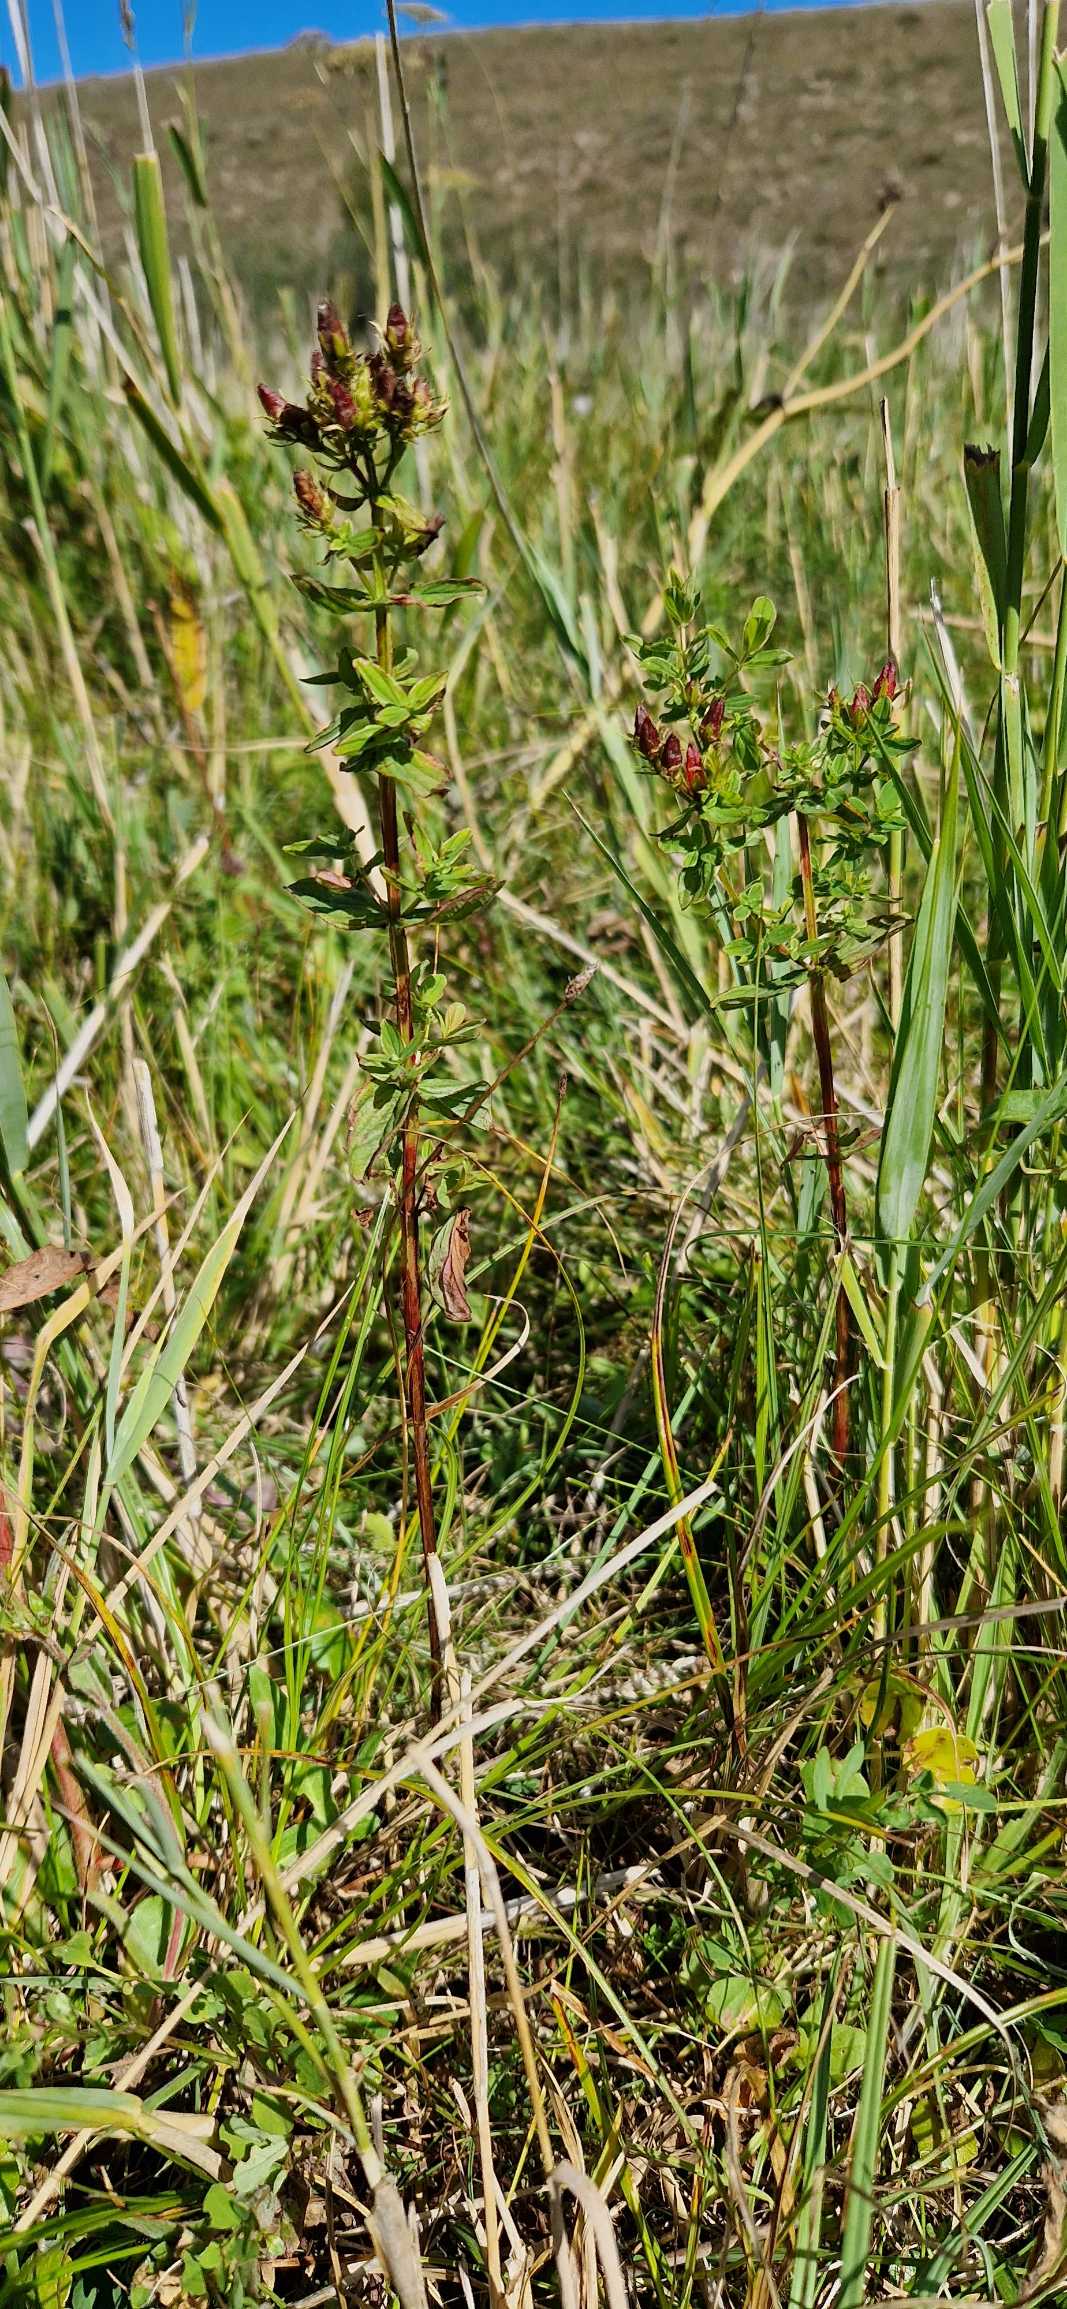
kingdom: Plantae
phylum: Tracheophyta
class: Magnoliopsida
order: Malpighiales
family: Hypericaceae
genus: Hypericum
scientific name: Hypericum tetrapterum
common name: Vinget perikon
